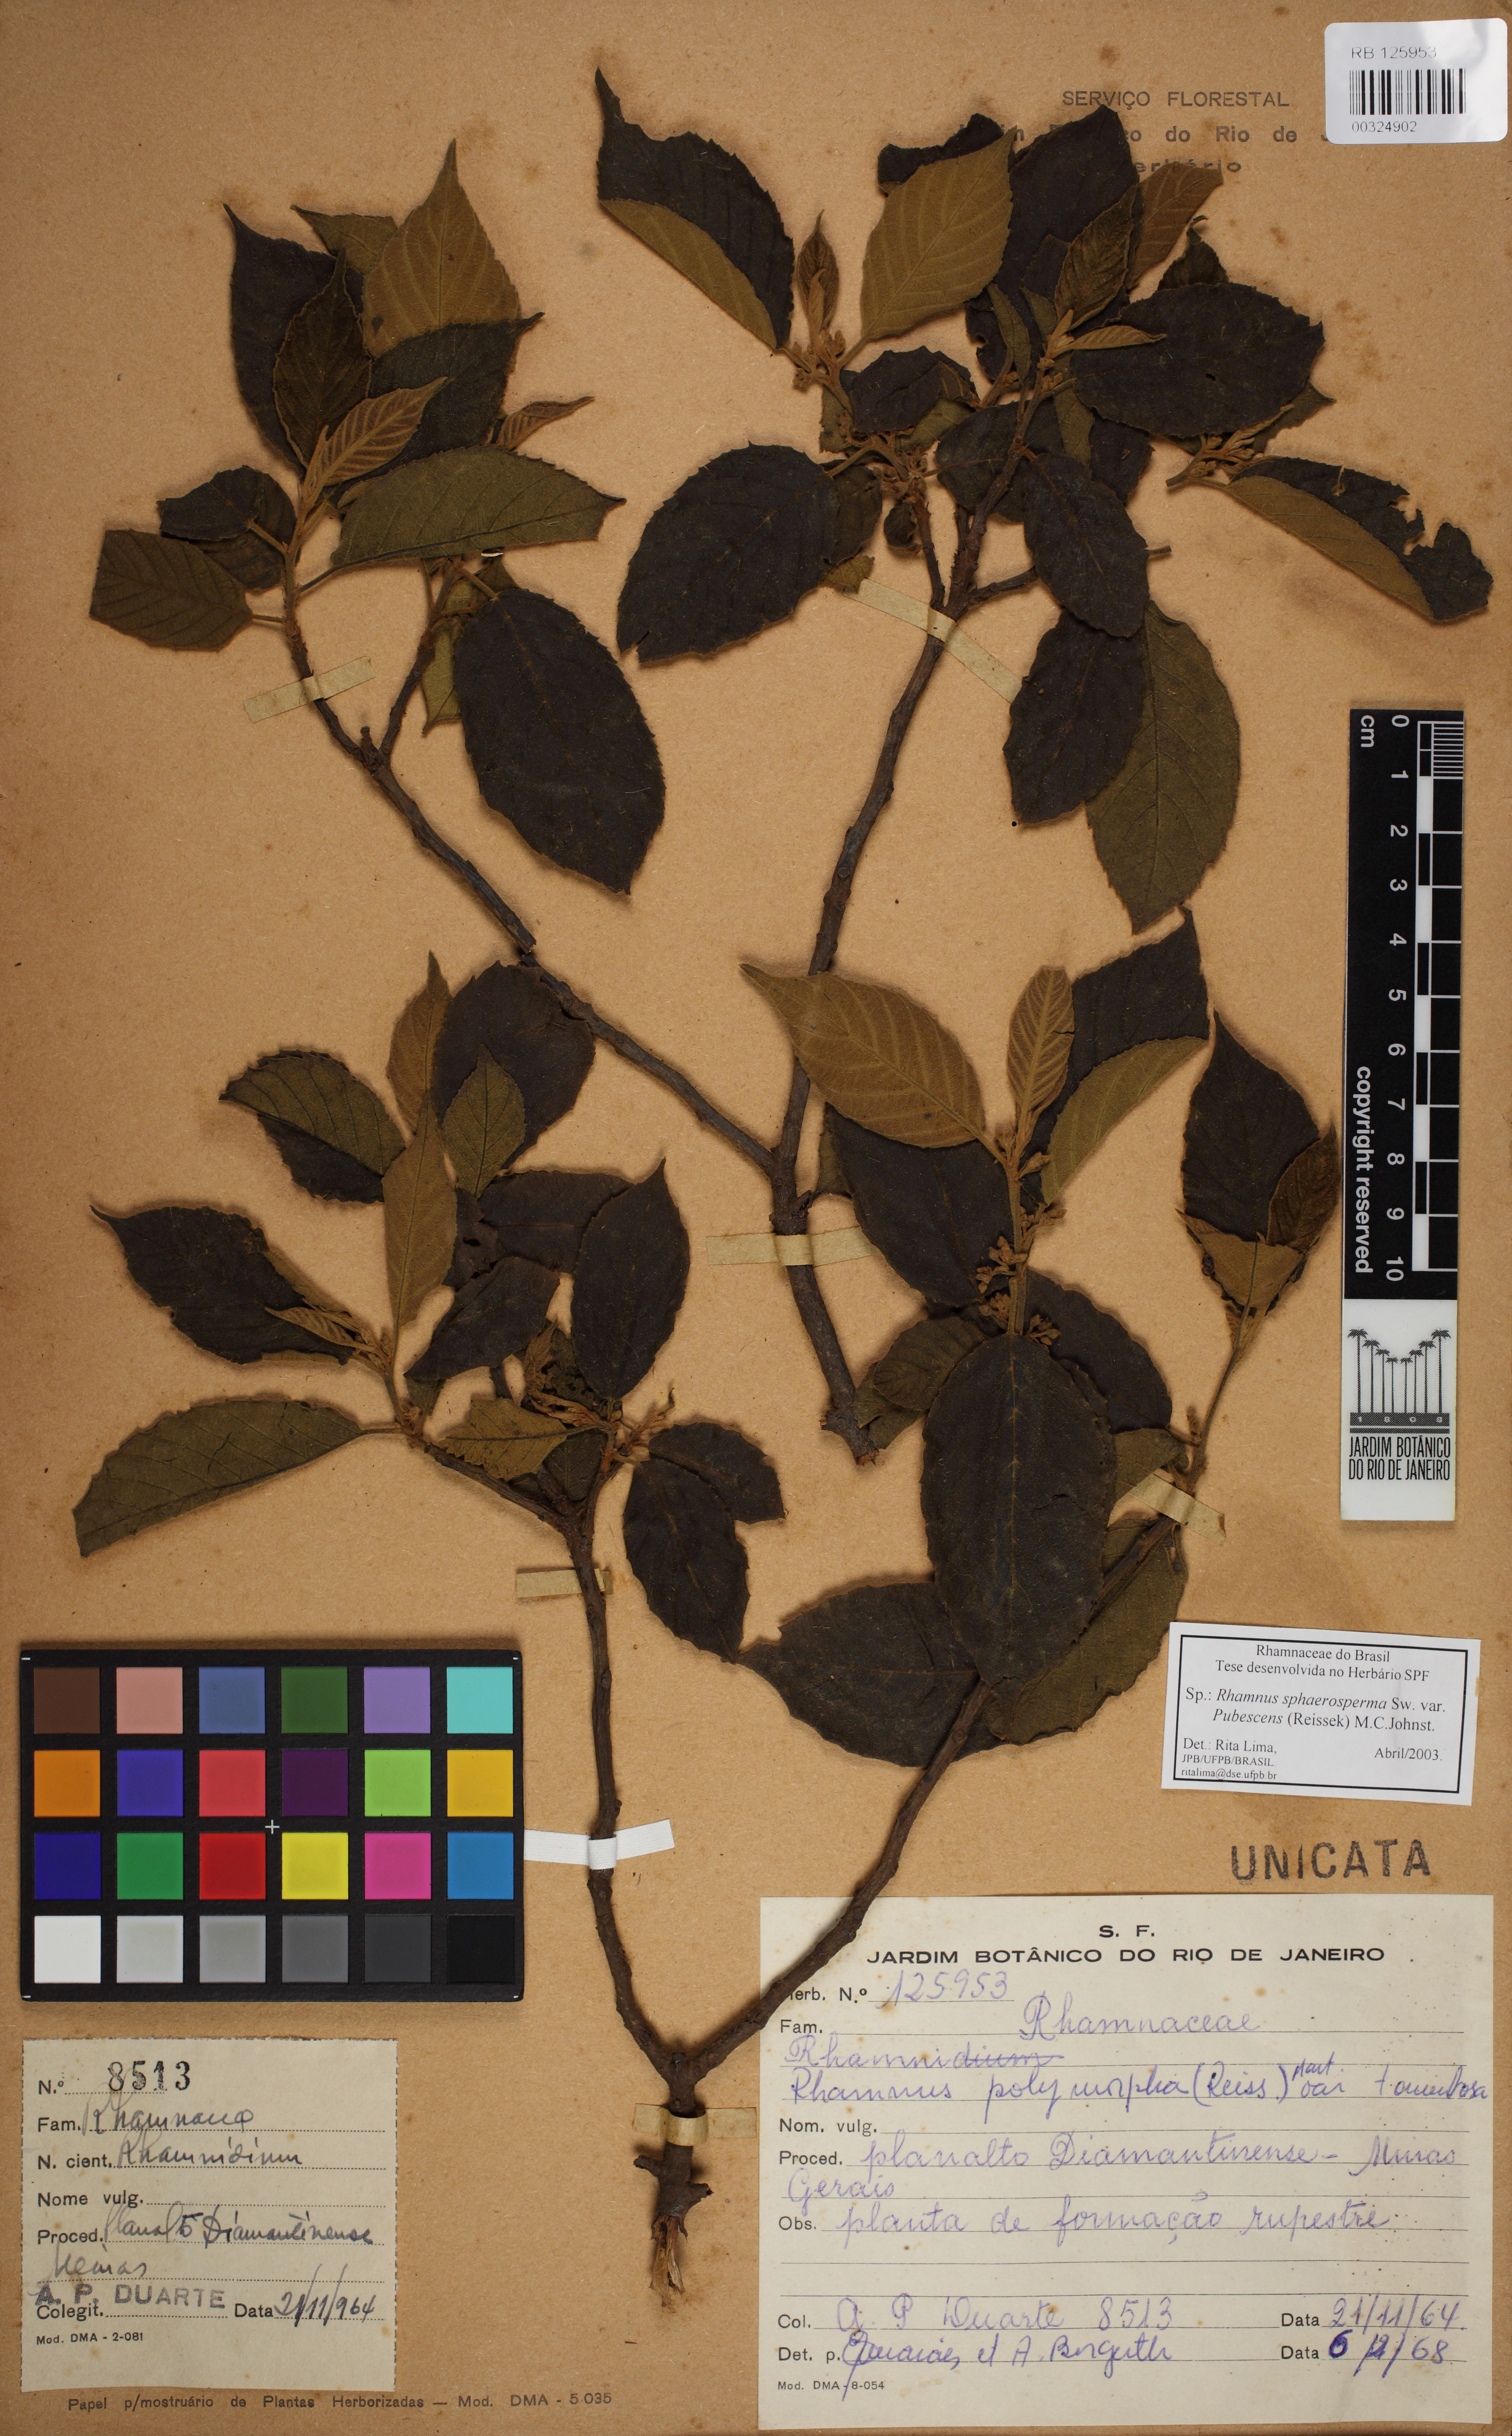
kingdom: Plantae
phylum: Tracheophyta
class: Magnoliopsida
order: Rosales
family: Rhamnaceae
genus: Frangula
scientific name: Frangula sphaerosperma
